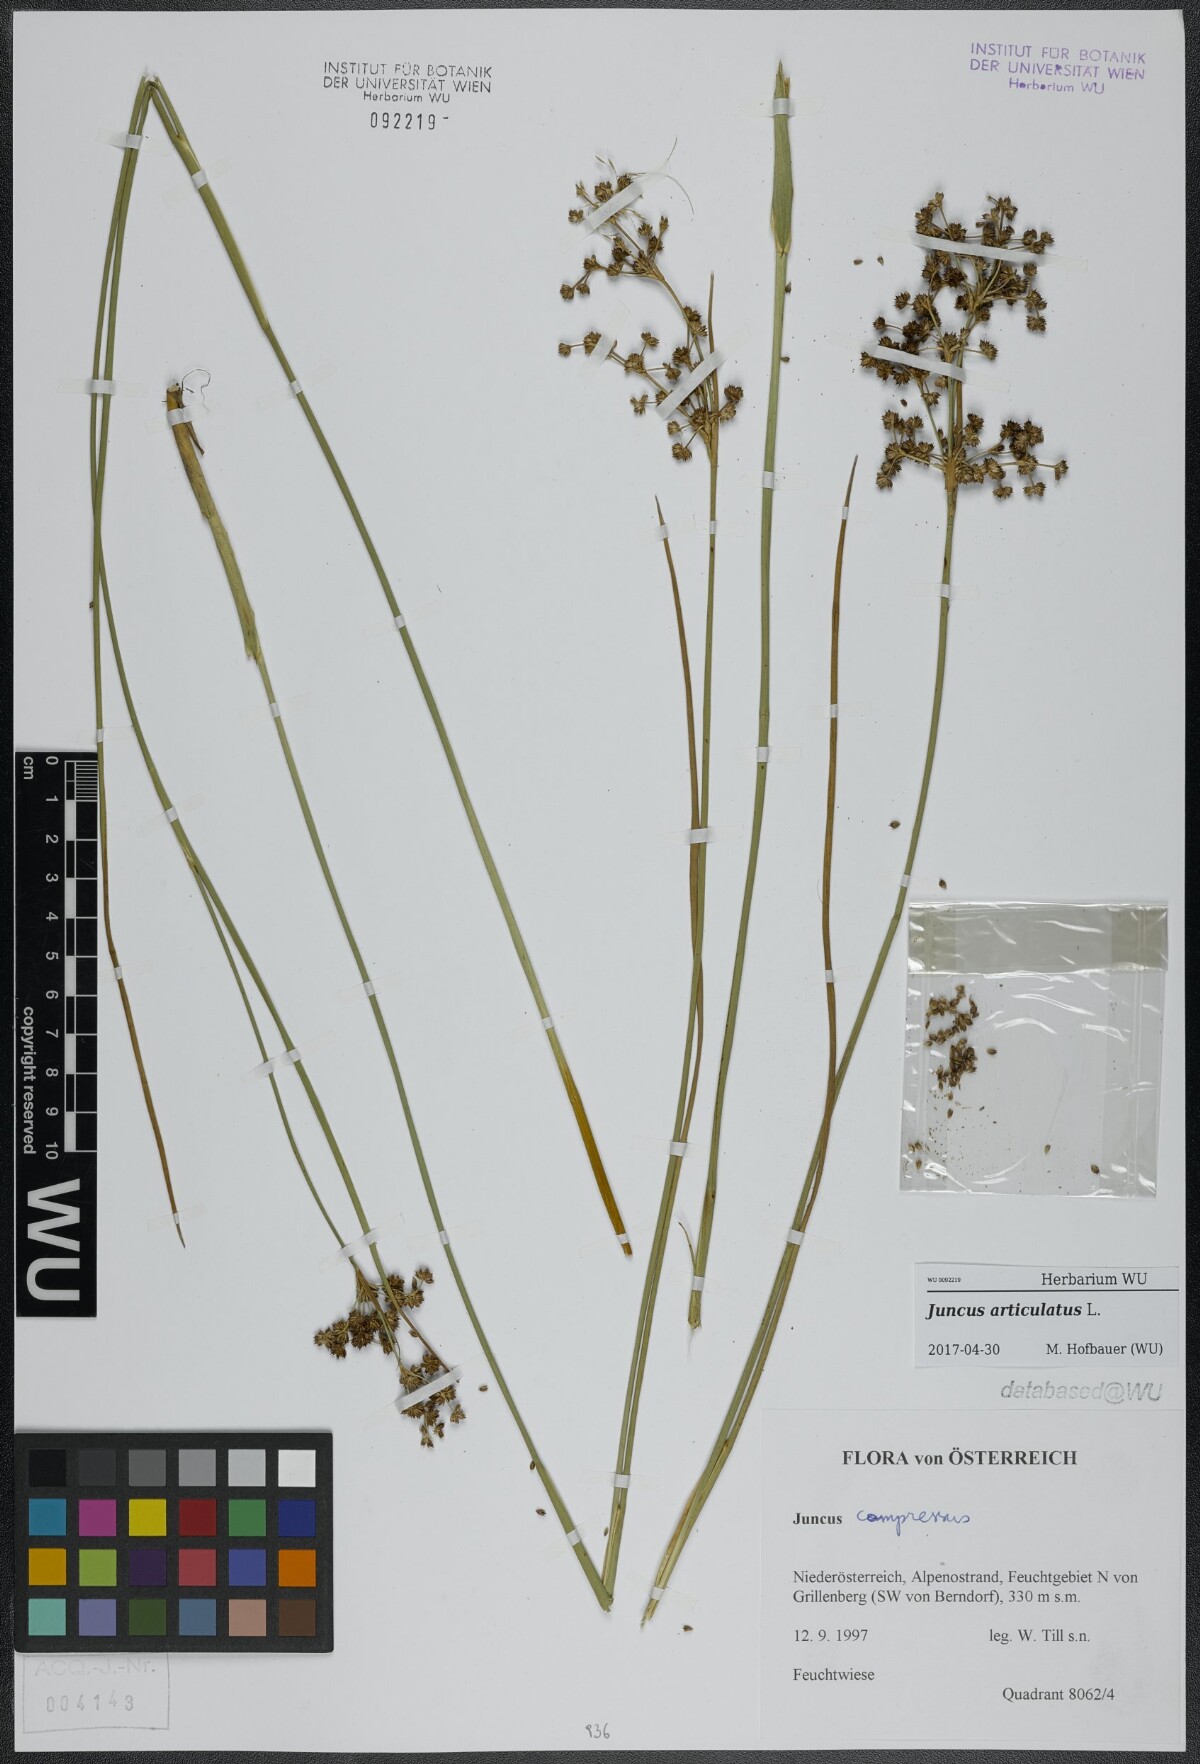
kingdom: Plantae
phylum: Tracheophyta
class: Liliopsida
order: Poales
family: Juncaceae
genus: Juncus
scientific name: Juncus articulatus
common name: Jointed rush
